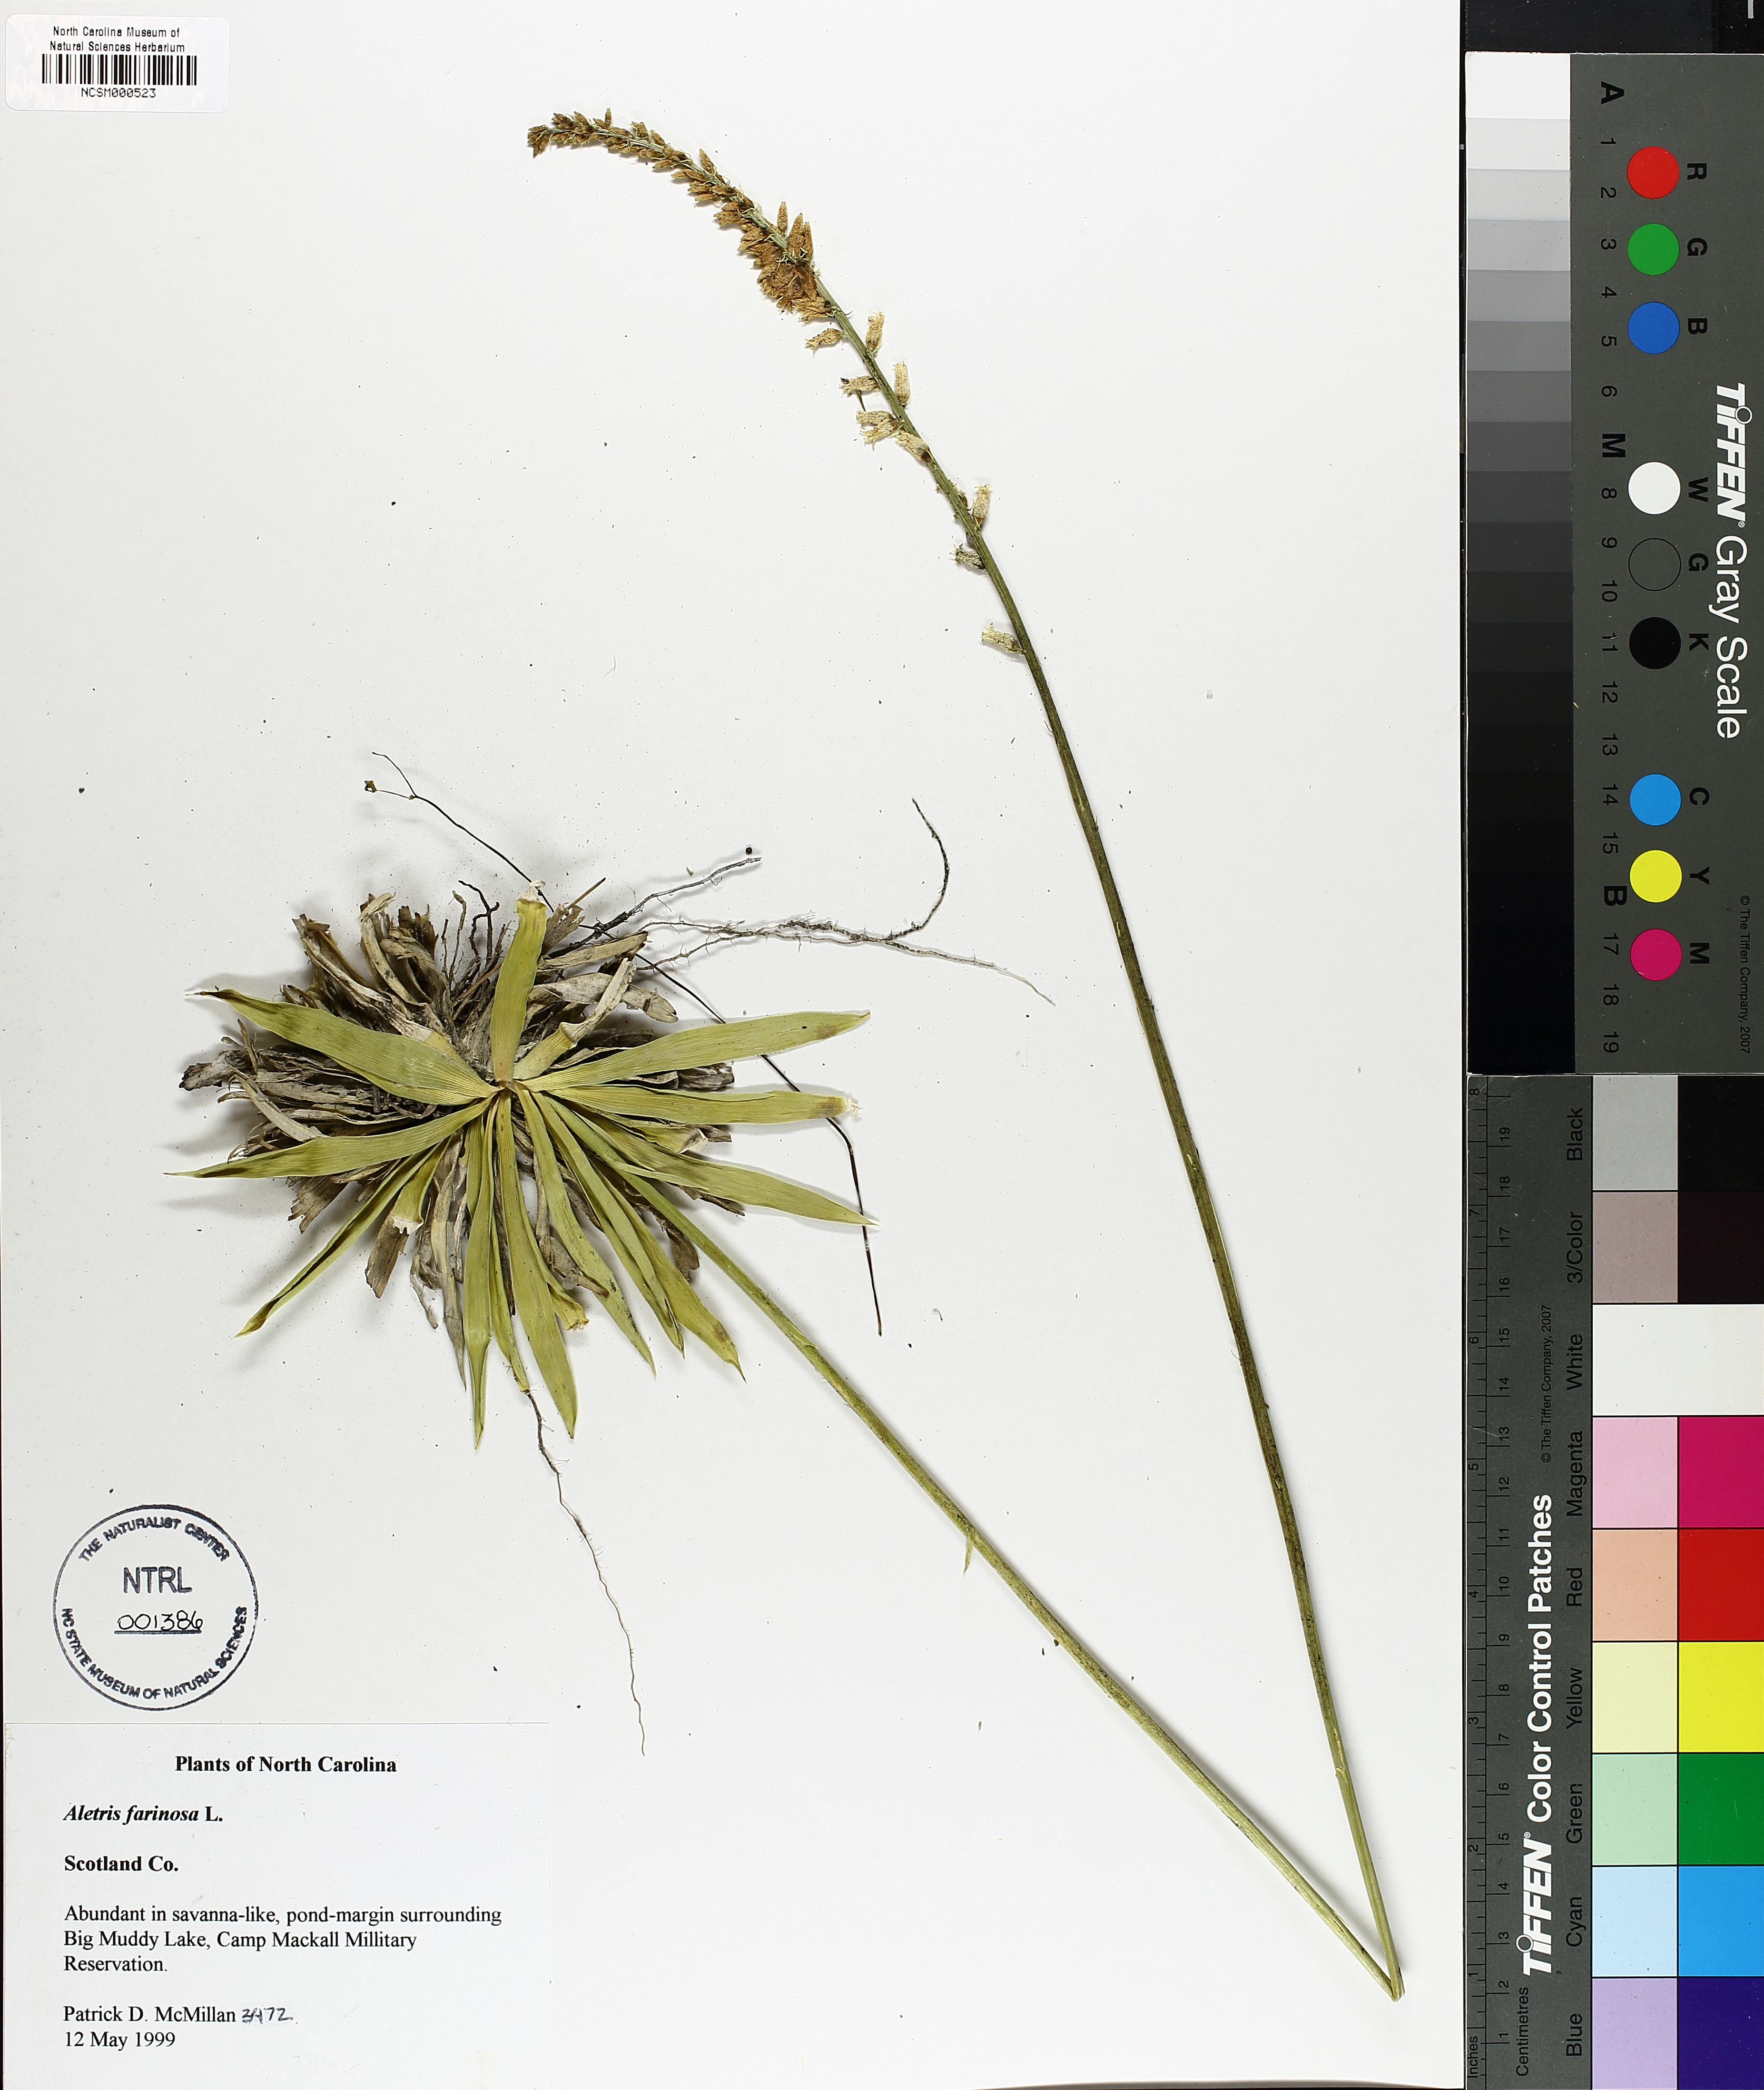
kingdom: Plantae
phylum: Tracheophyta
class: Liliopsida
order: Dioscoreales
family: Nartheciaceae
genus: Aletris
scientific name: Aletris farinosa
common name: Colicroot
